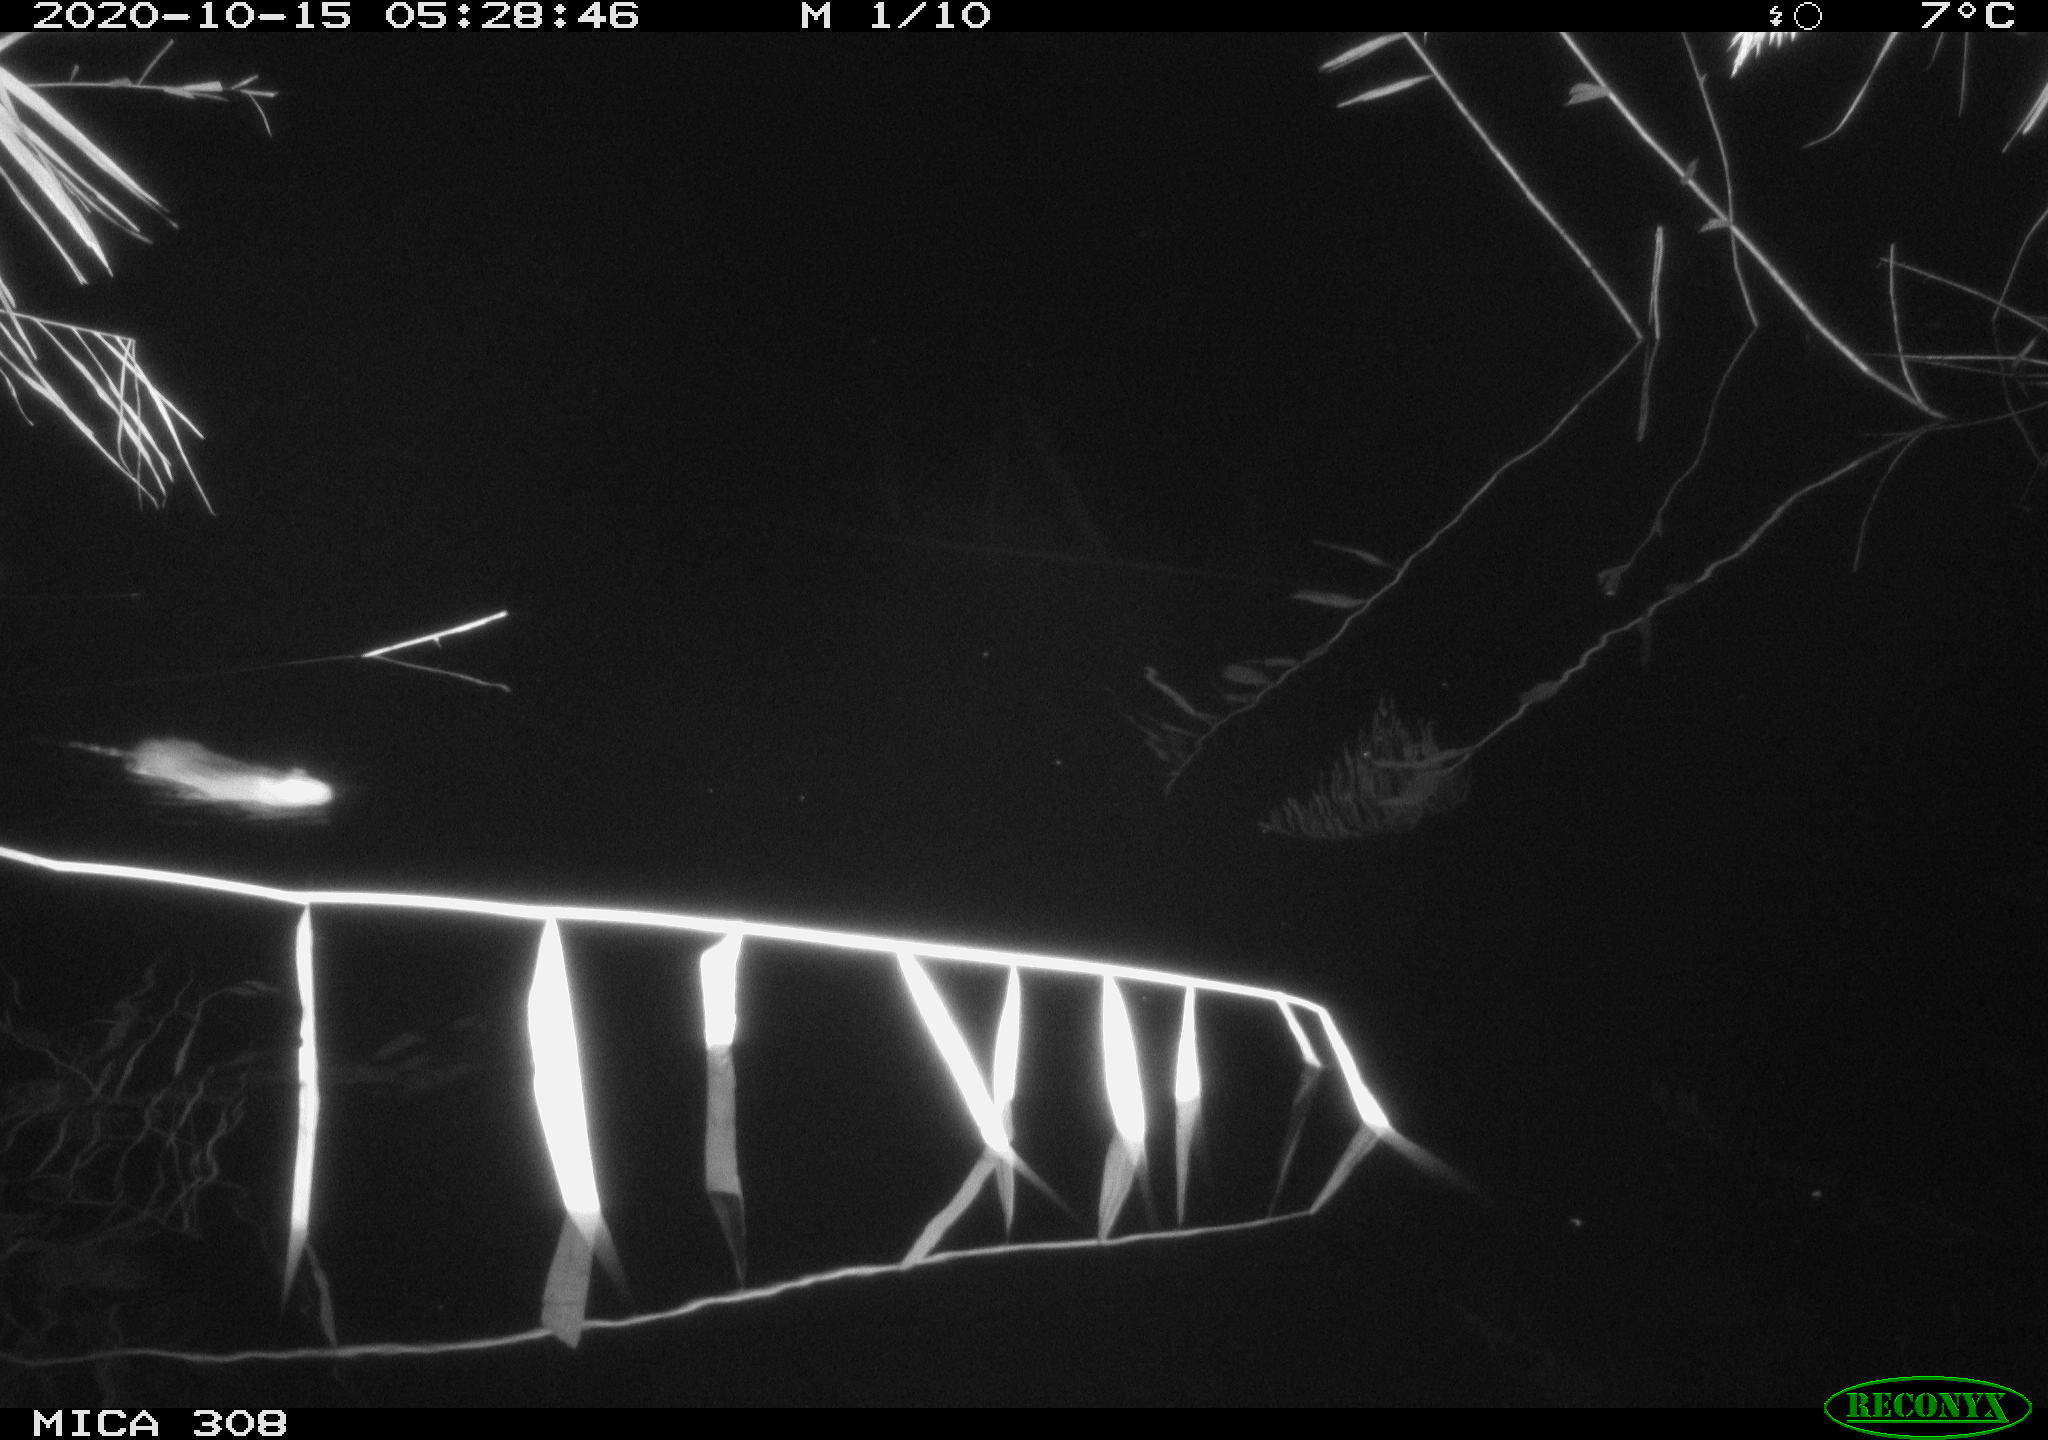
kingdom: Animalia
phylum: Chordata
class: Mammalia
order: Rodentia
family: Muridae
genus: Rattus
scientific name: Rattus norvegicus
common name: Brown rat
